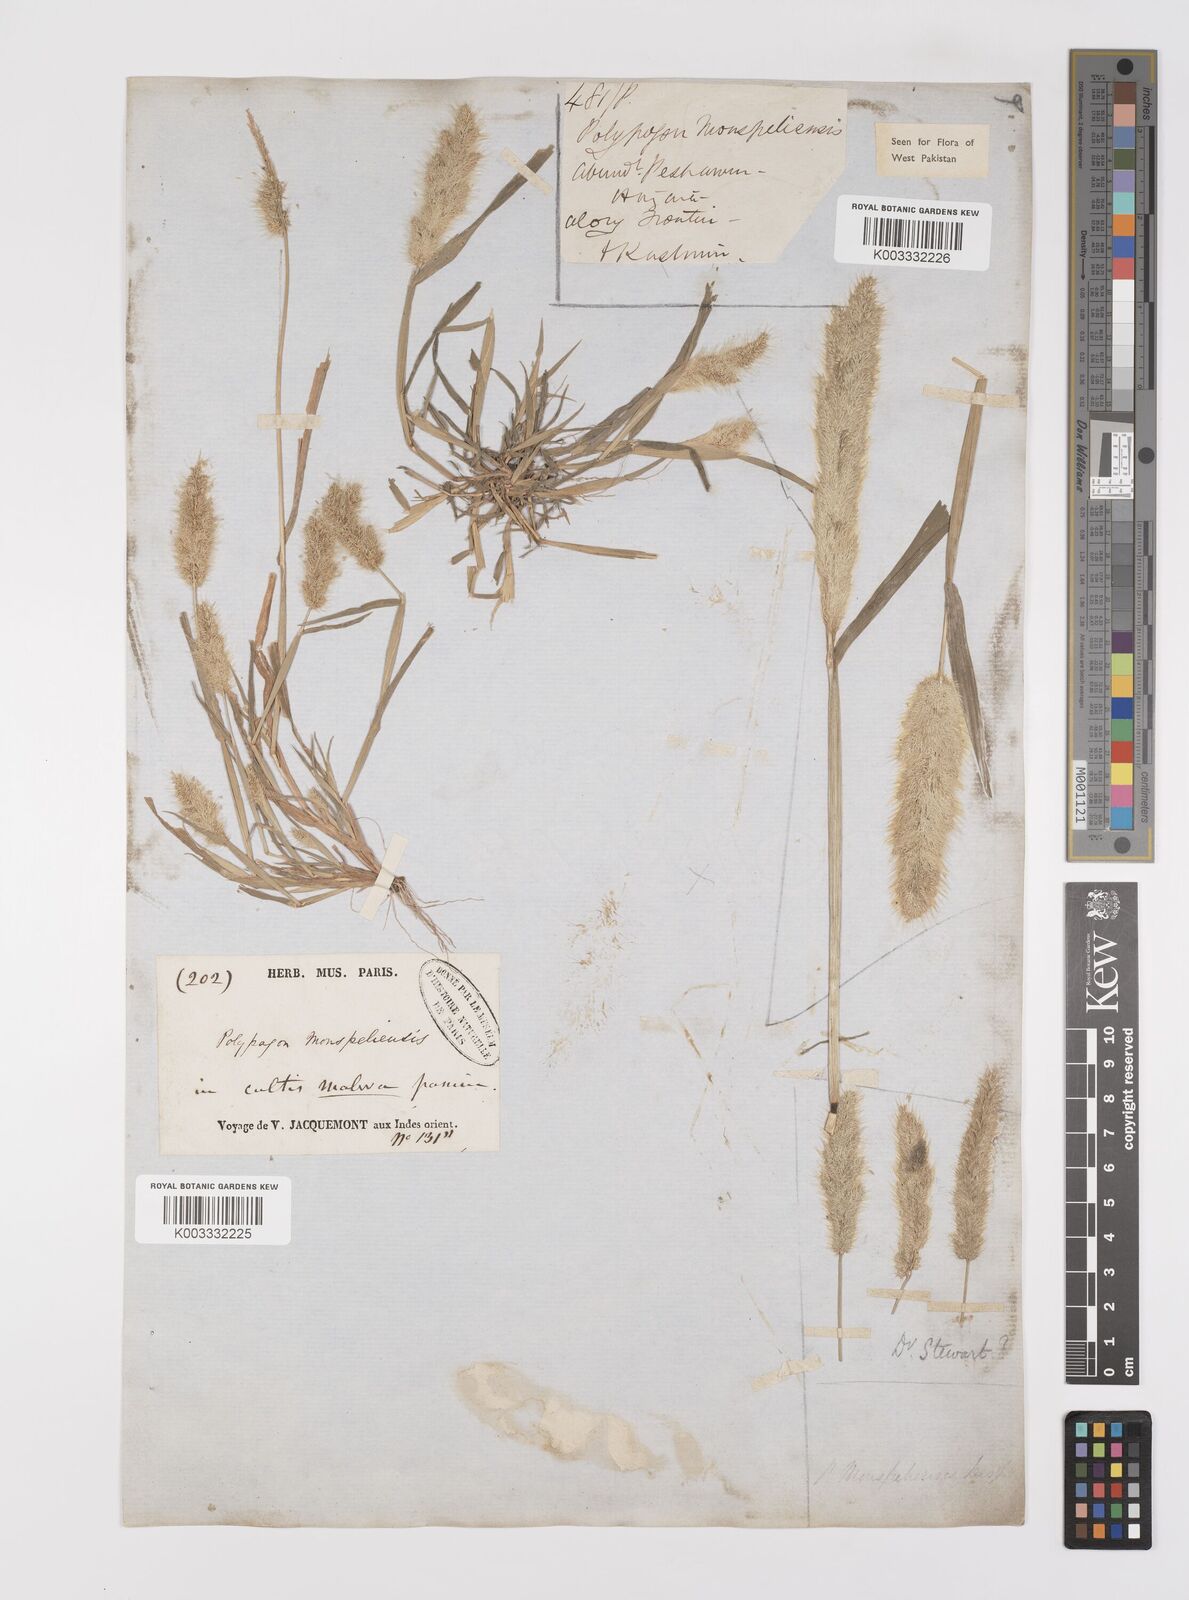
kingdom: Plantae
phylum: Tracheophyta
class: Liliopsida
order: Poales
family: Poaceae
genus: Polypogon
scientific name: Polypogon monspeliensis
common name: Annual rabbitsfoot grass
